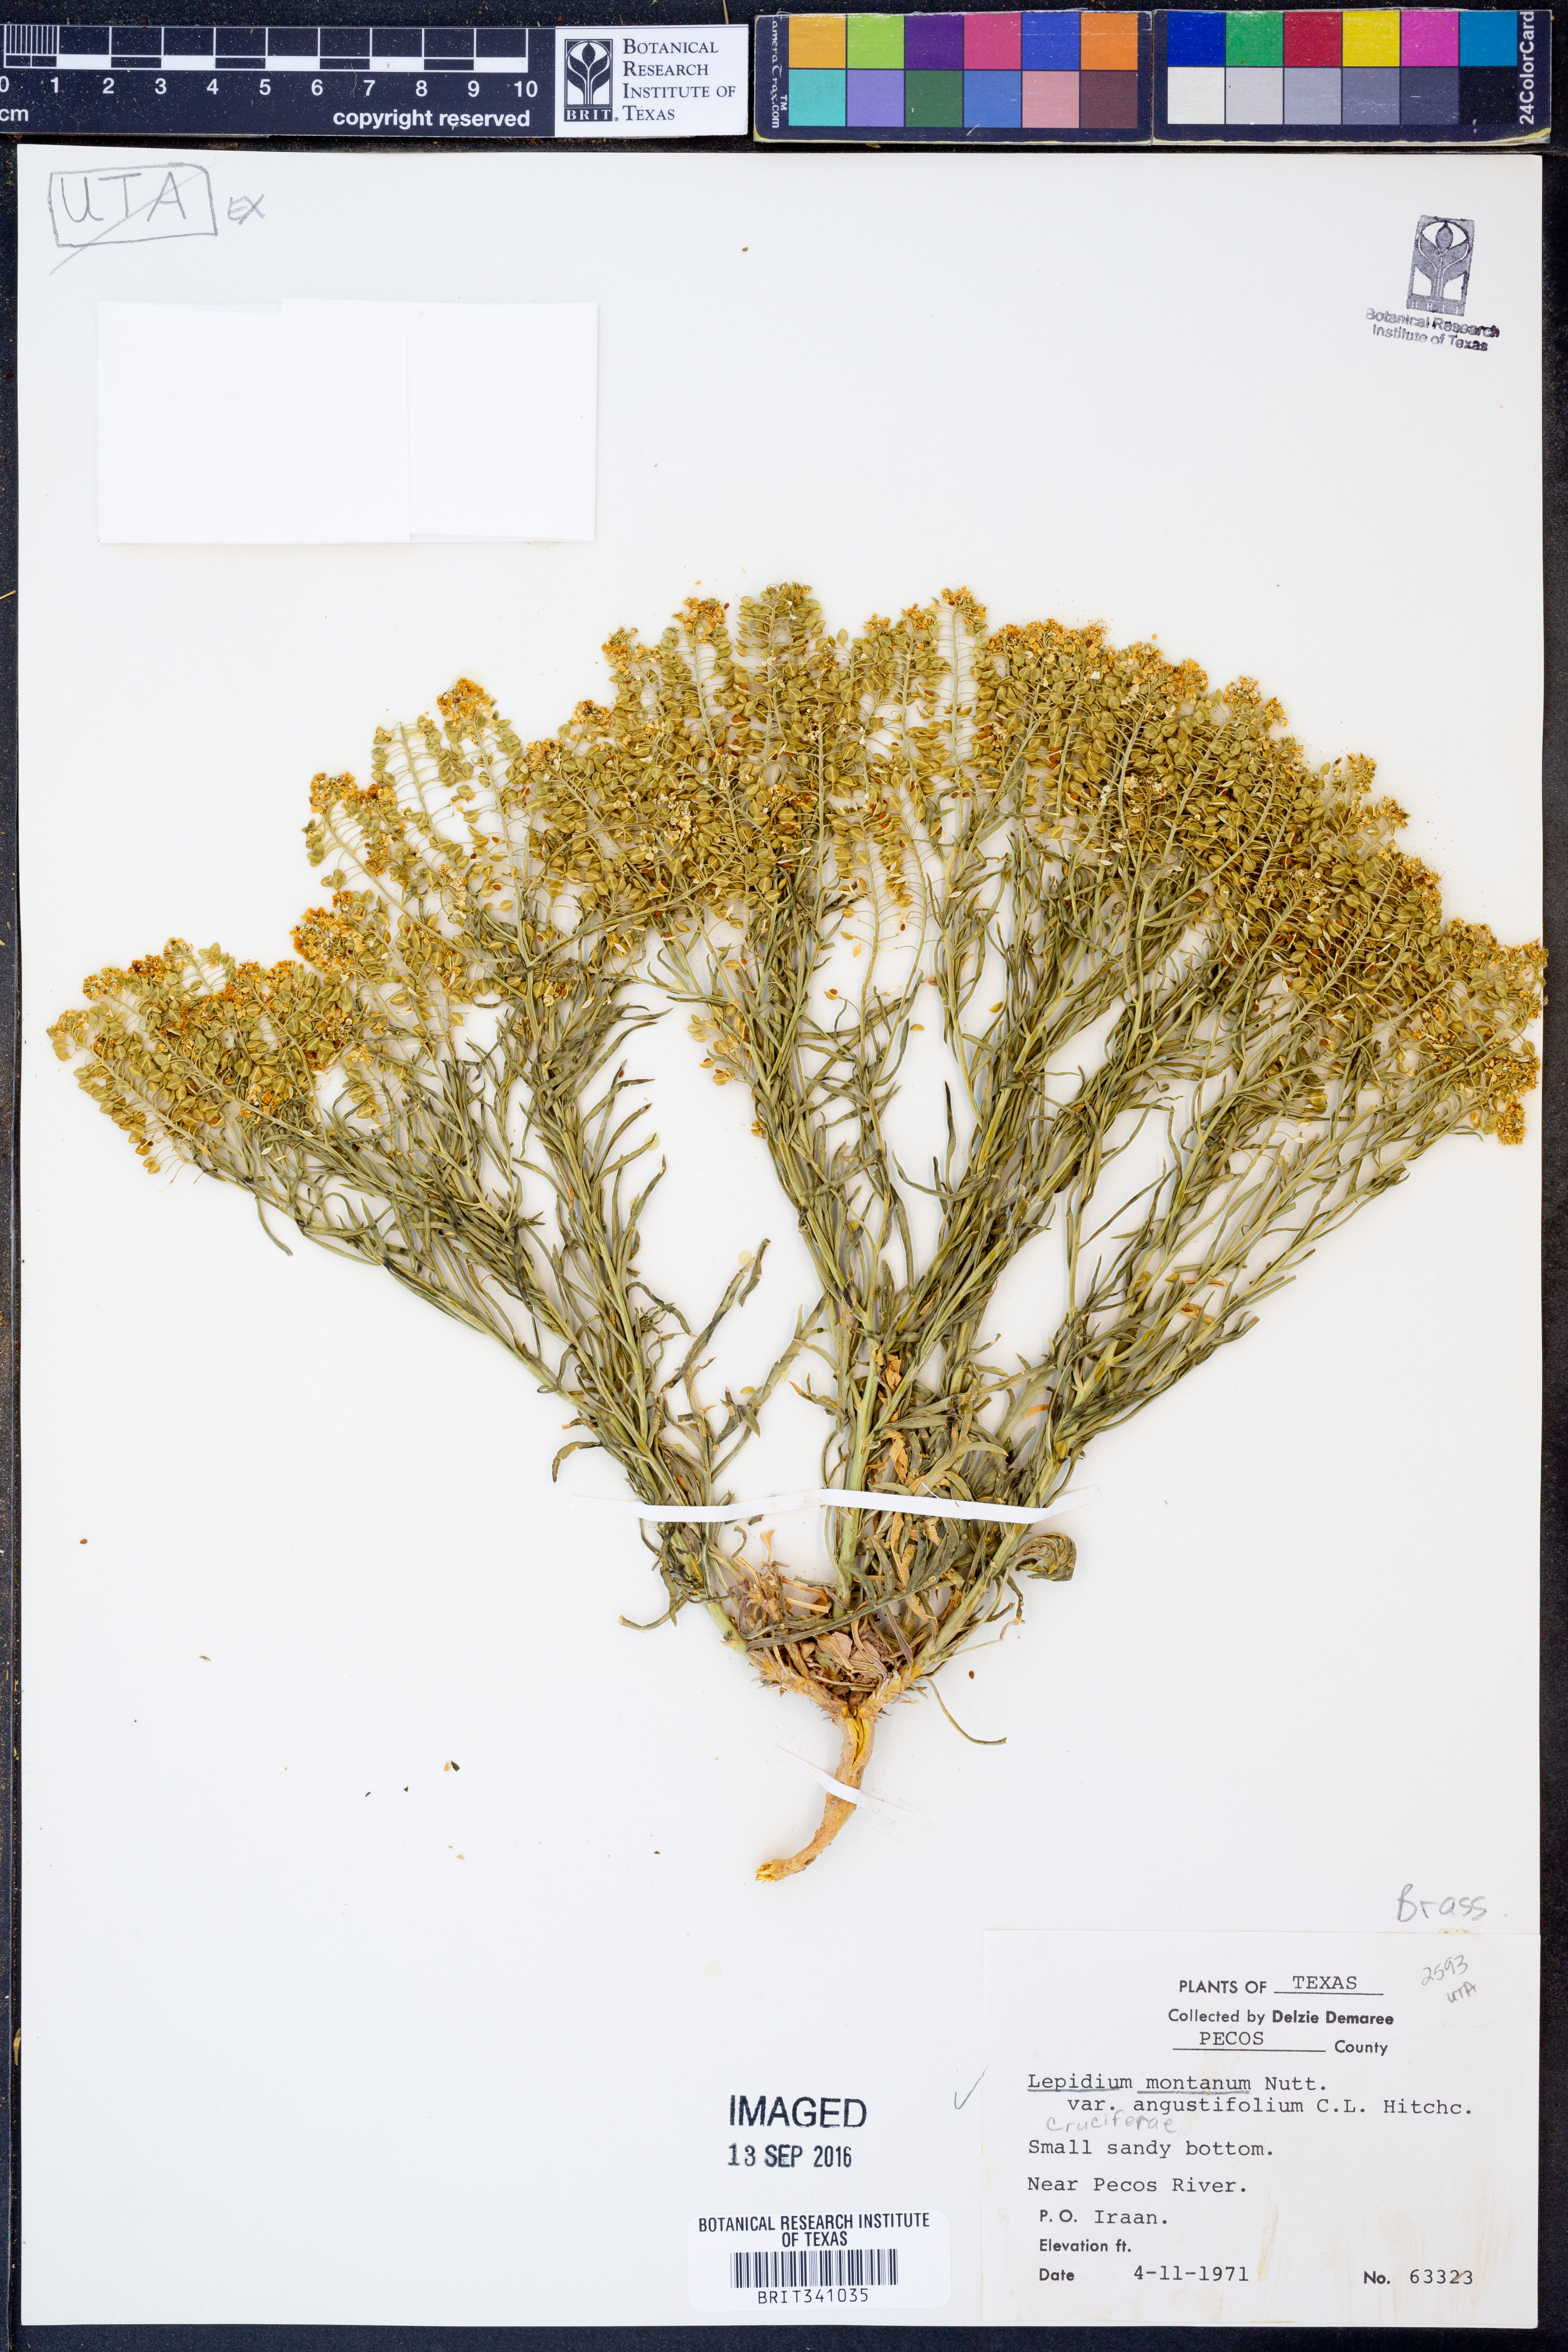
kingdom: Plantae
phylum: Tracheophyta
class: Magnoliopsida
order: Brassicales
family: Brassicaceae
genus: Lepidium
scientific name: Lepidium alyssoides
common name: Mesa pepperweed
